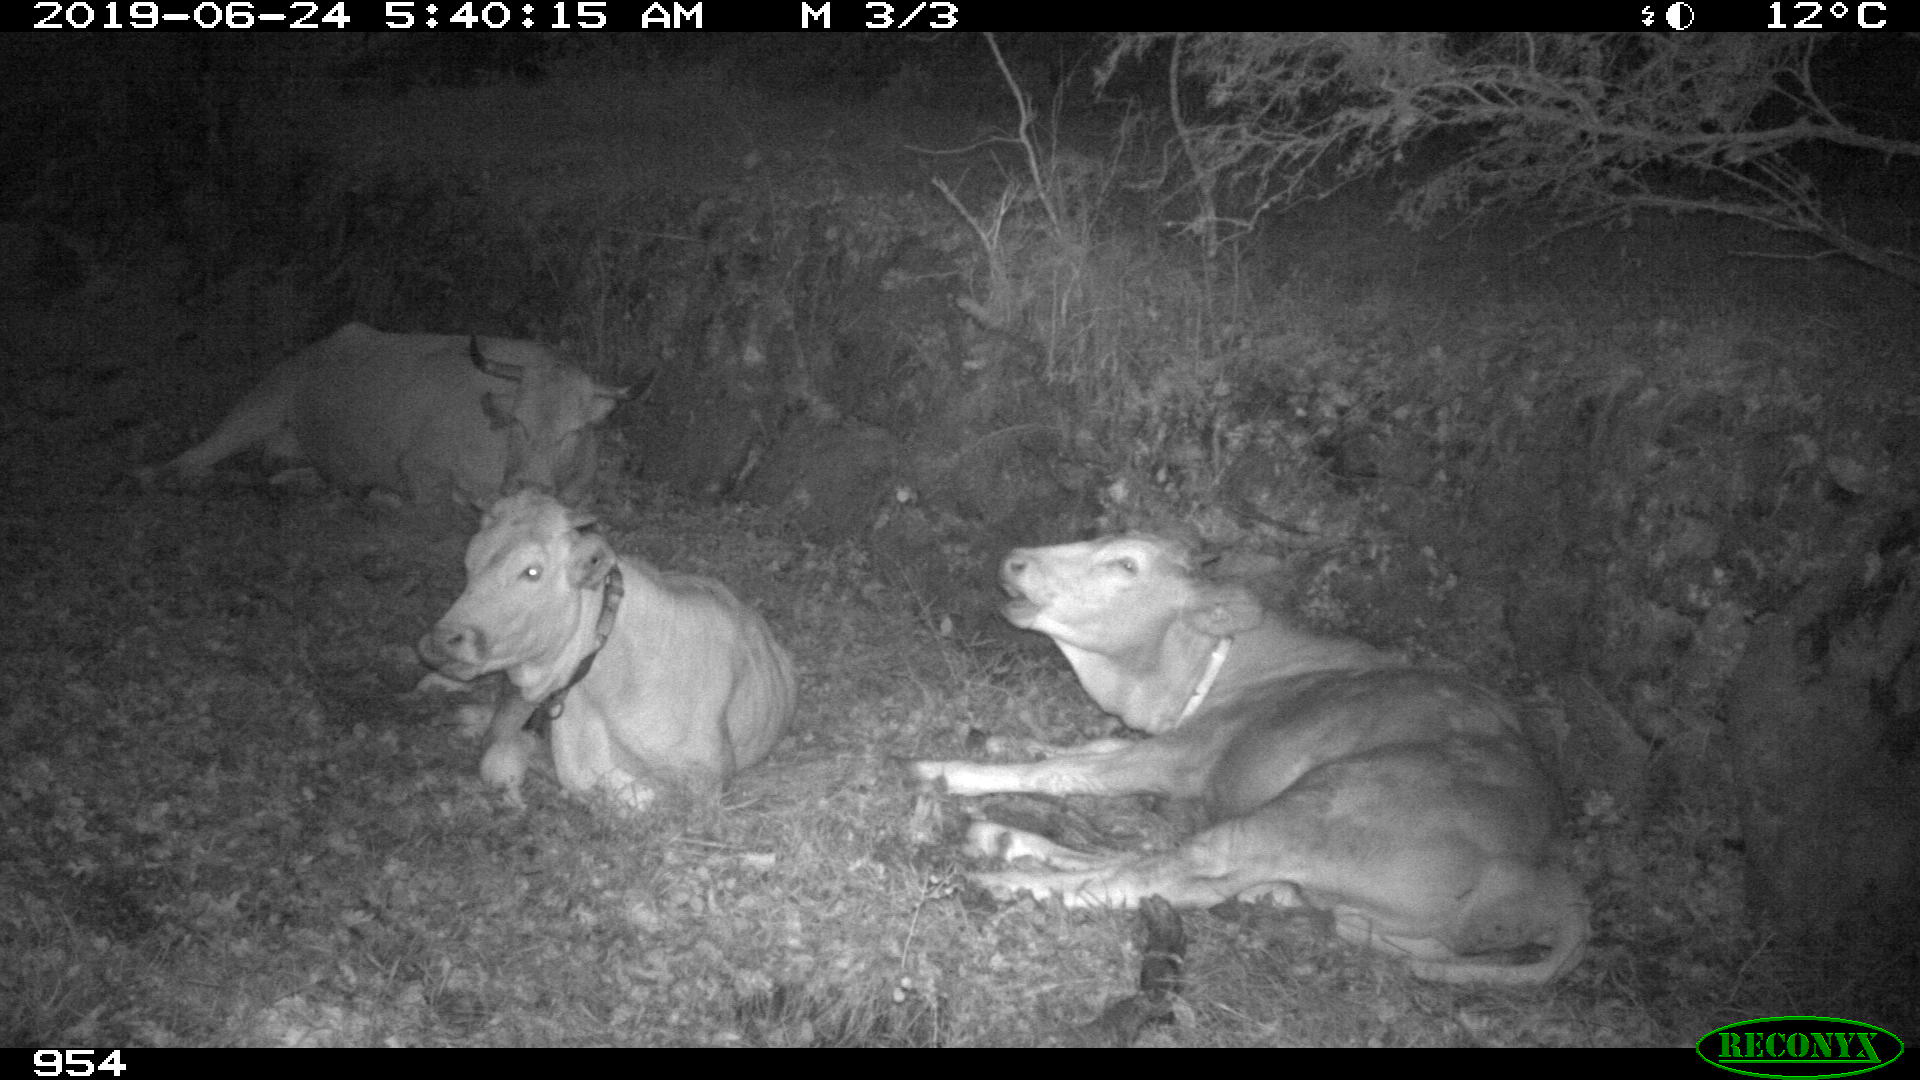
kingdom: Animalia
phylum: Chordata
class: Mammalia
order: Artiodactyla
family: Bovidae
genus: Bos
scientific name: Bos taurus
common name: Domesticated cattle
